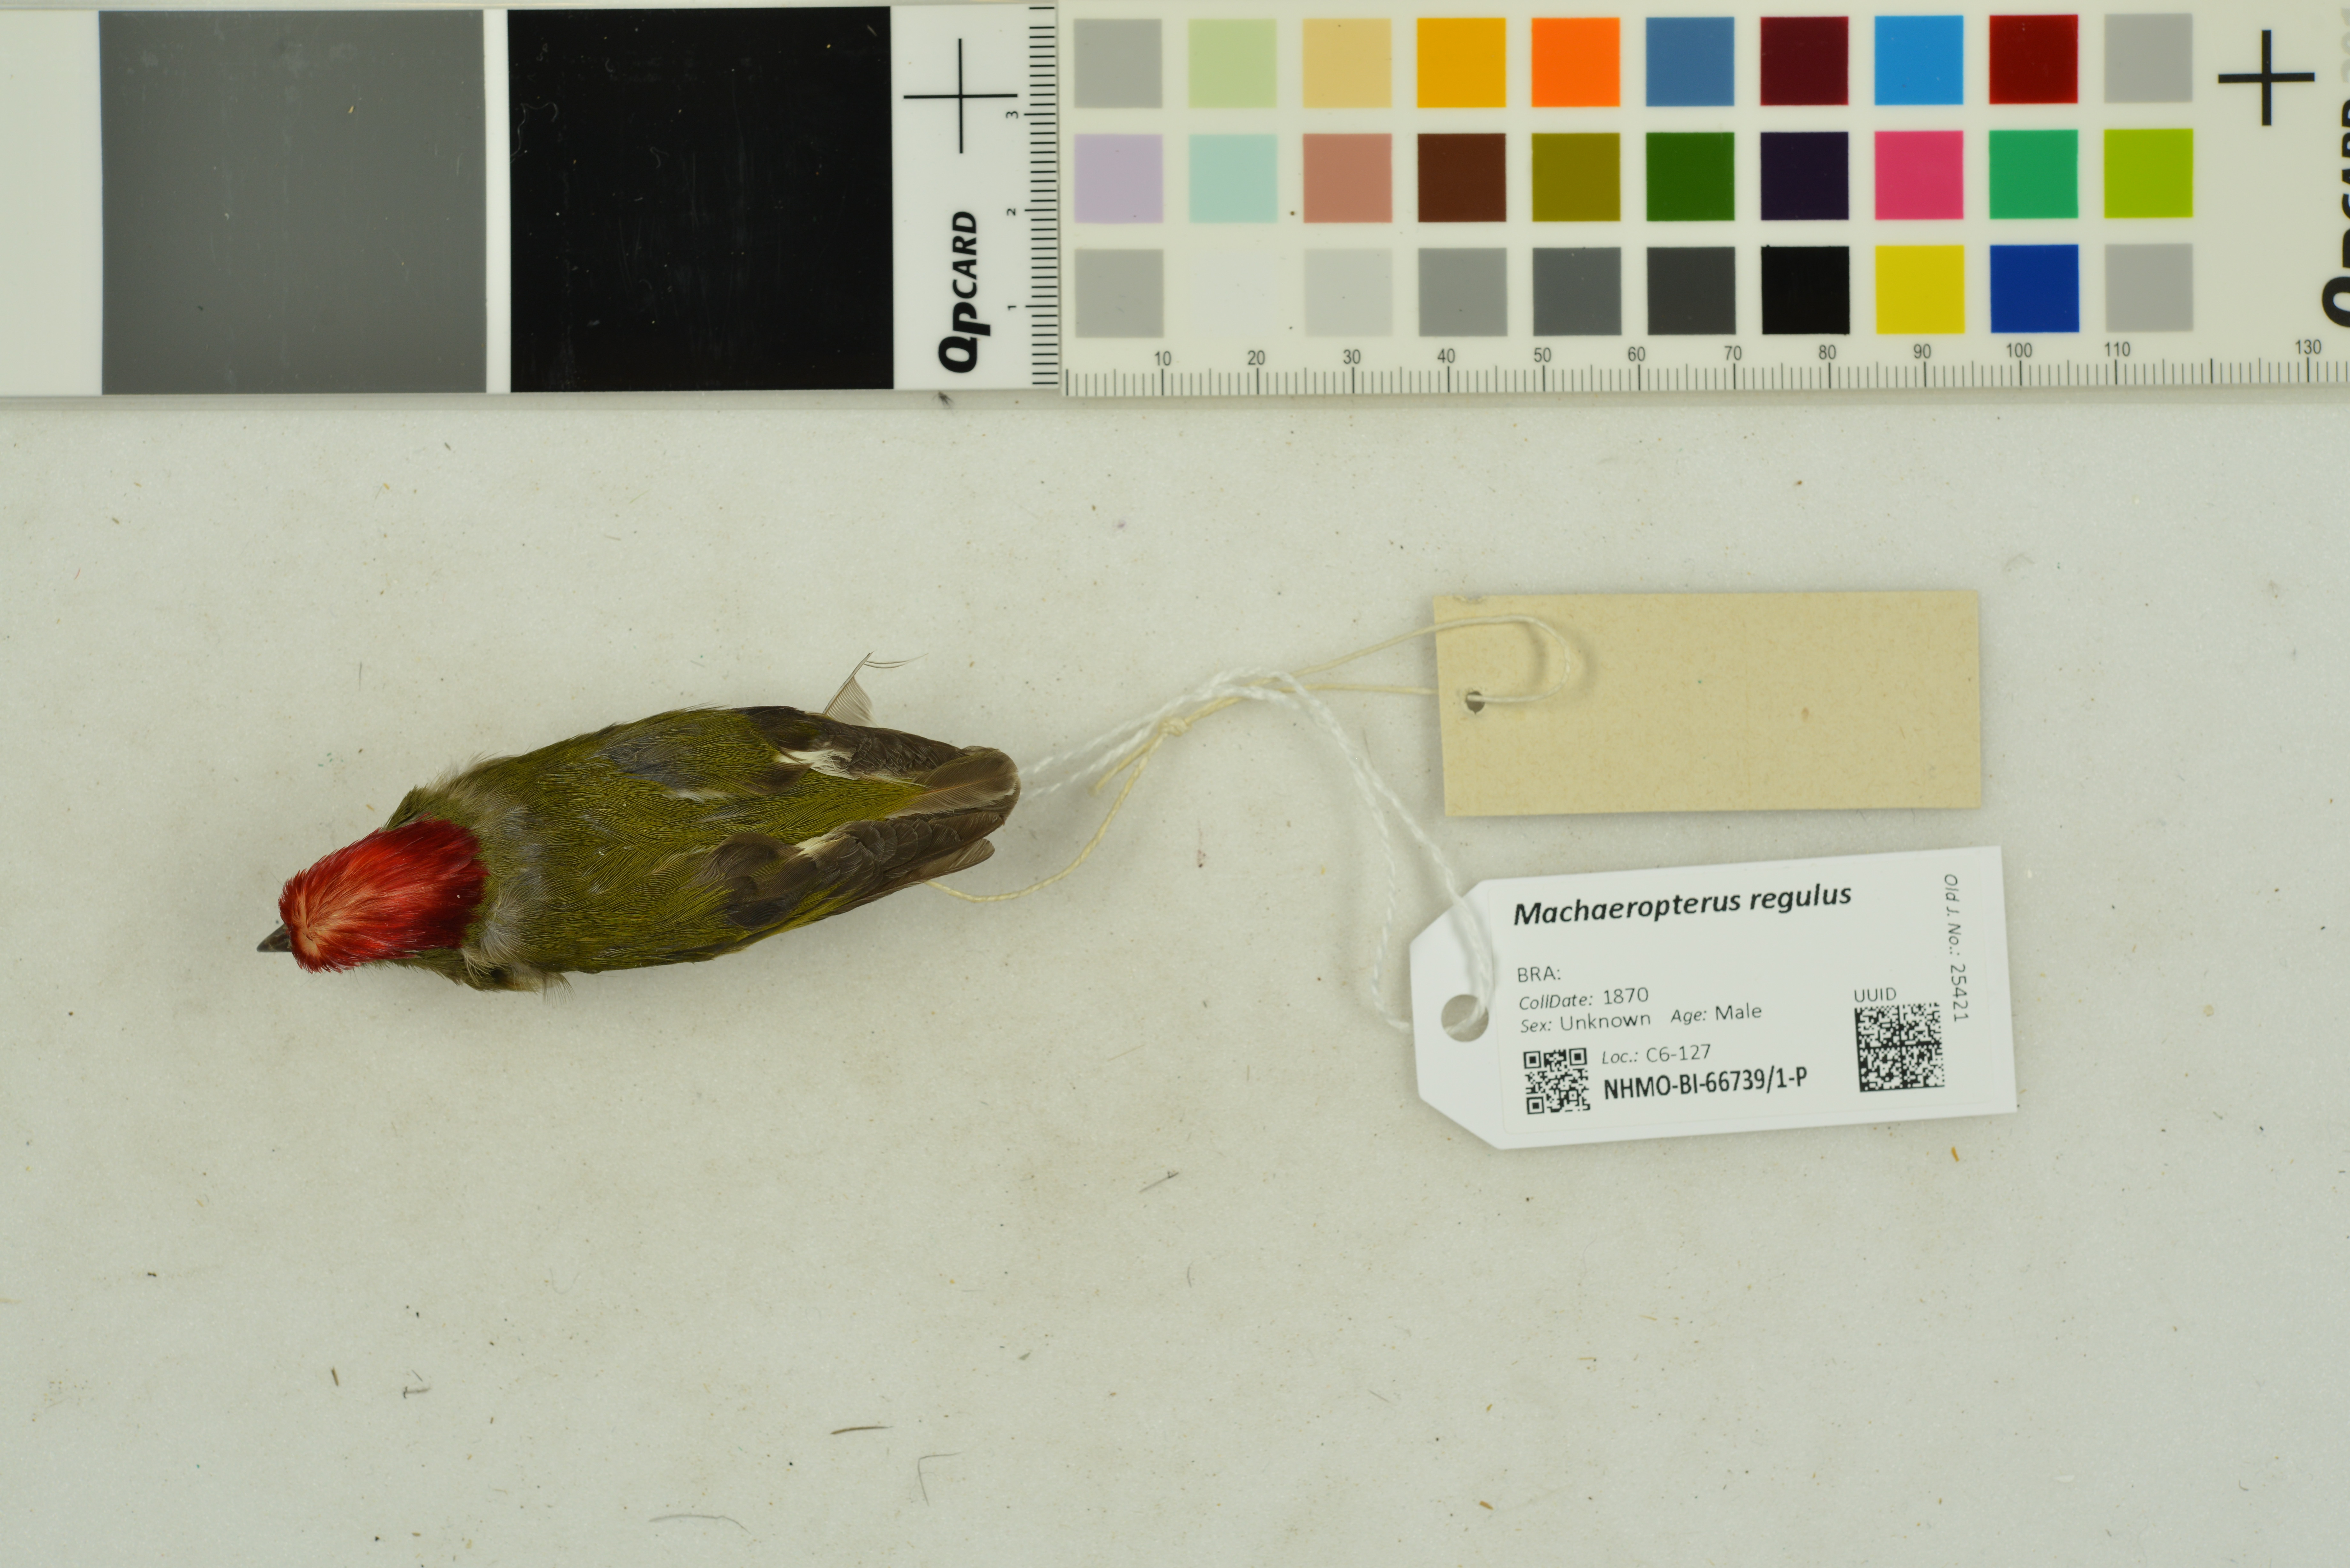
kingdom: Animalia
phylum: Chordata
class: Aves
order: Passeriformes
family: Pipridae
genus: Machaeropterus
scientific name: Machaeropterus regulus
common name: Eastern striped manakin
